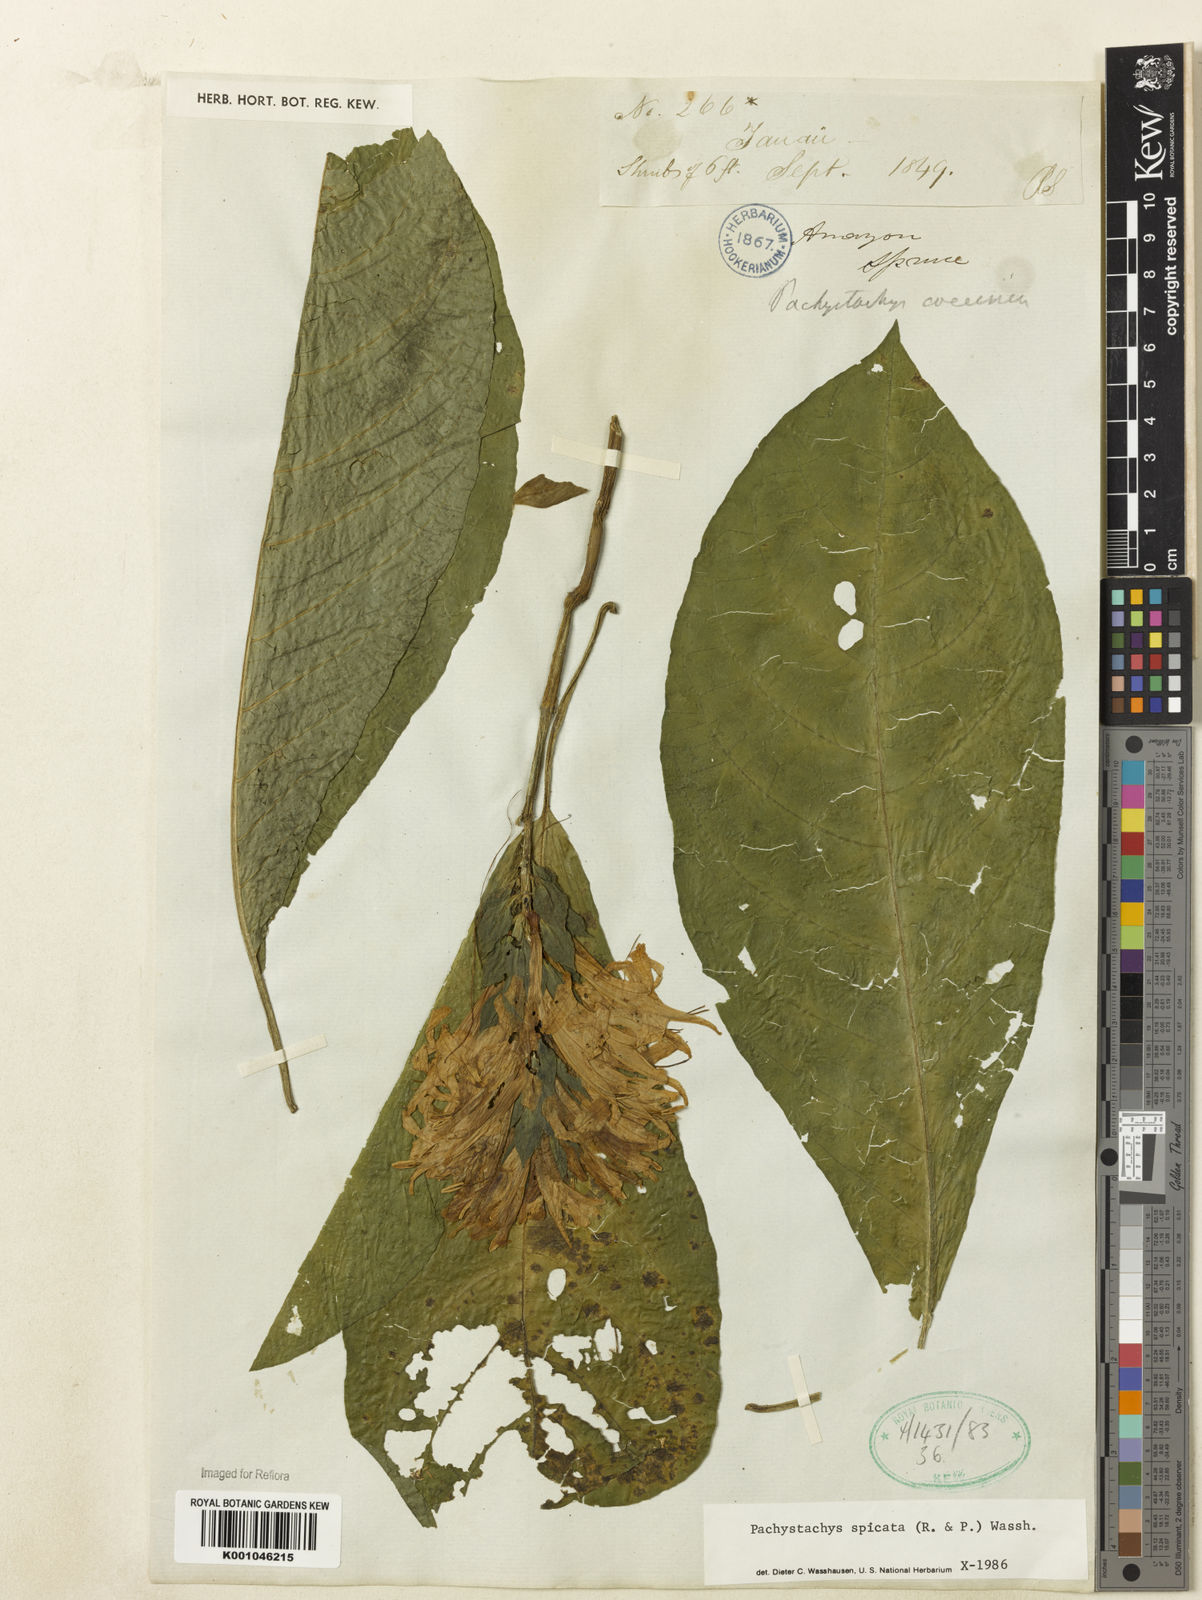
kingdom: Plantae
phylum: Tracheophyta
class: Magnoliopsida
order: Lamiales
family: Acanthaceae
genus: Pachystachys
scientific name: Pachystachys spicata
